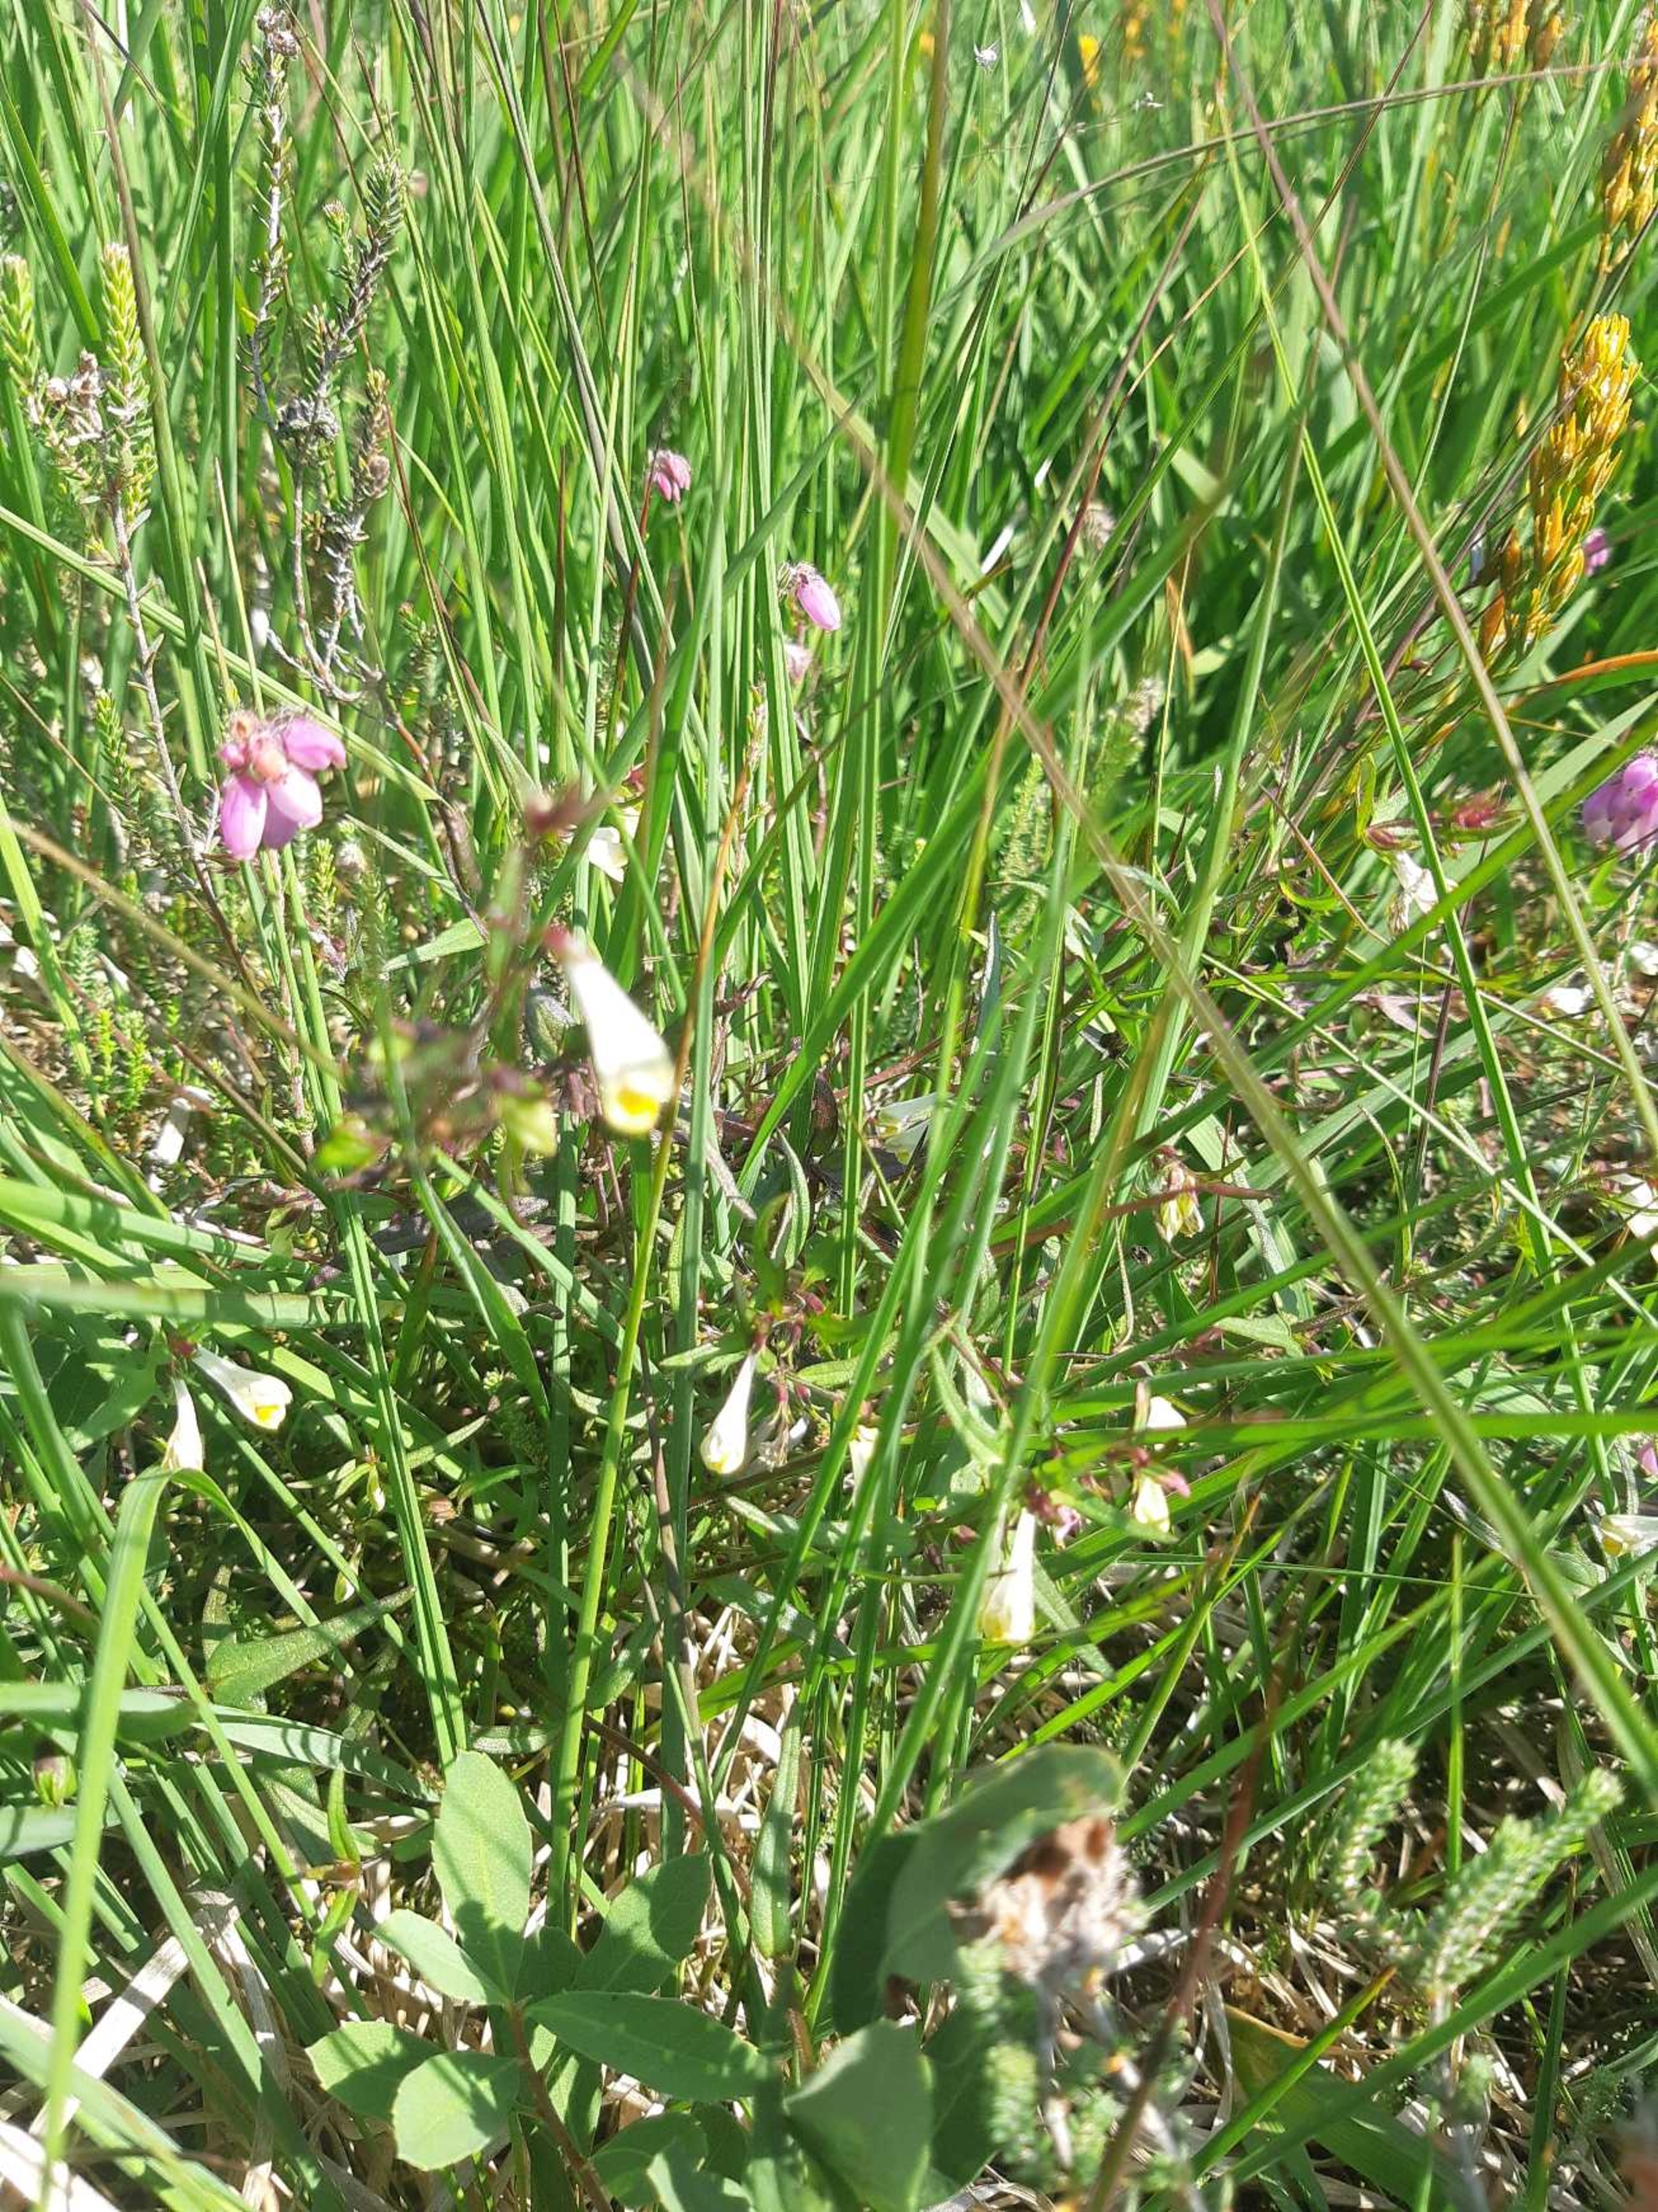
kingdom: Plantae
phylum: Tracheophyta
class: Magnoliopsida
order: Lamiales
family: Orobanchaceae
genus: Melampyrum
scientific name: Melampyrum pratense
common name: Almindelig kohvede
